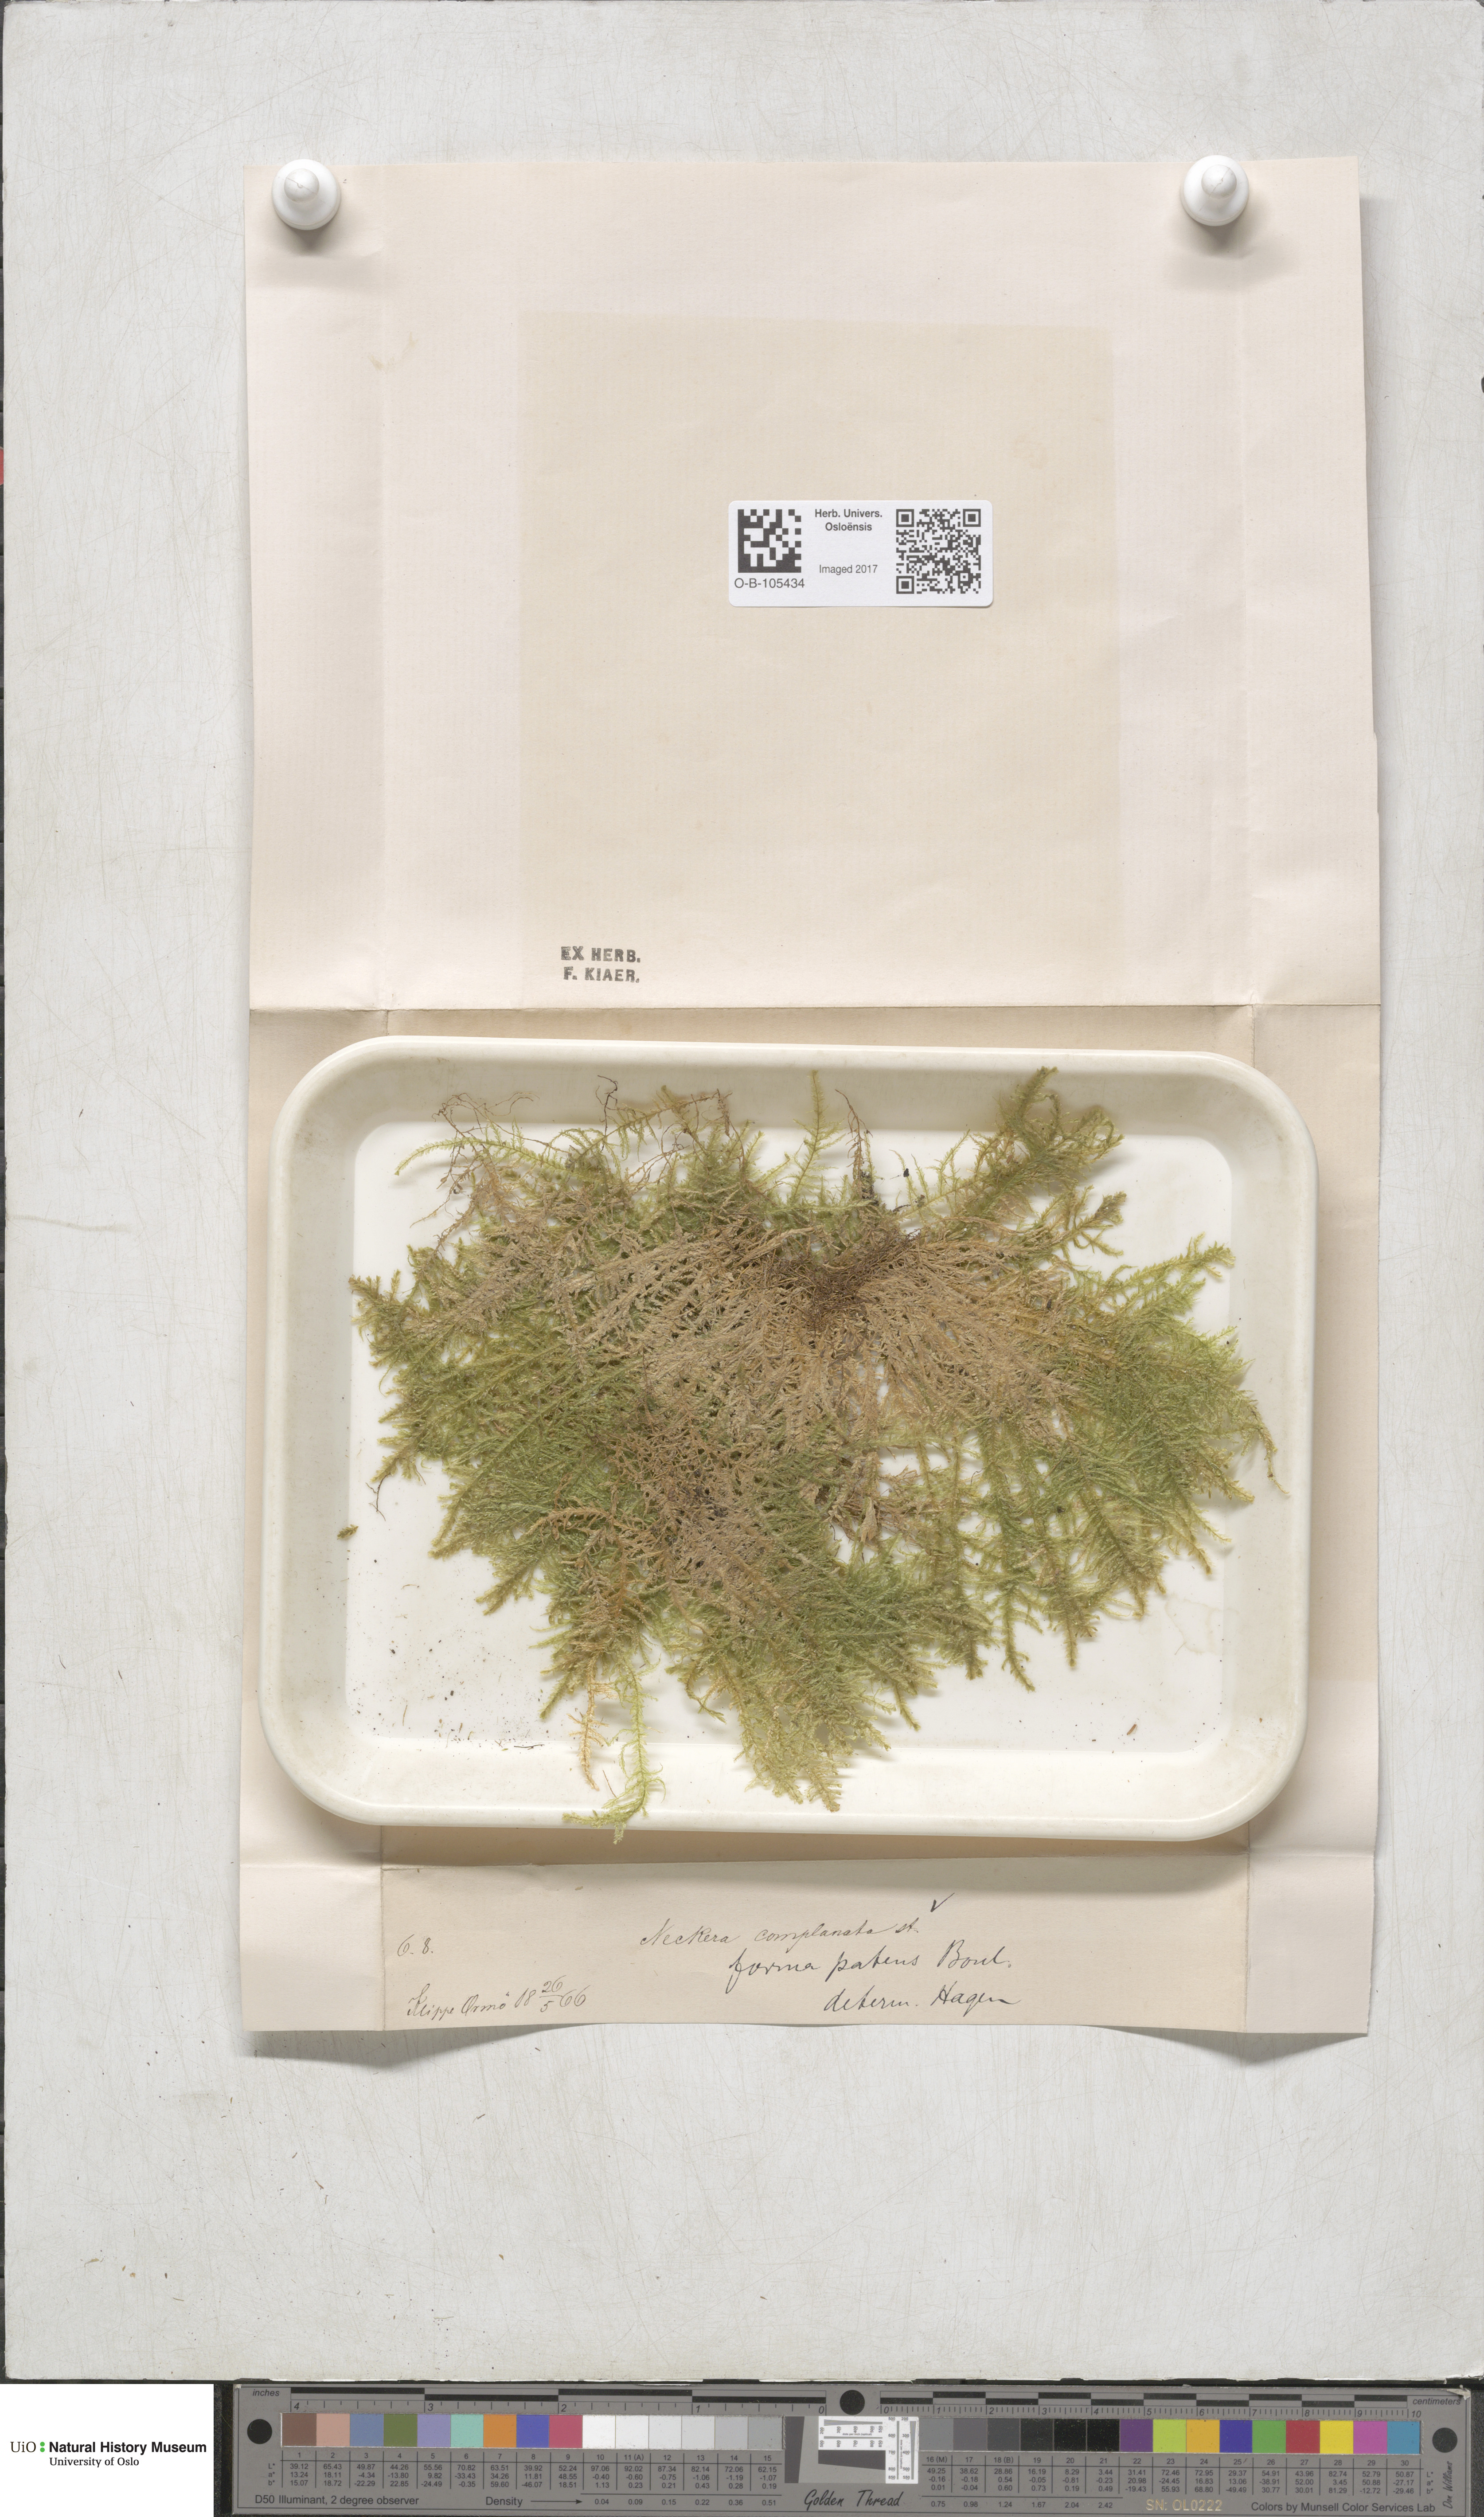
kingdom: Plantae
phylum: Bryophyta
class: Bryopsida
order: Hypnales
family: Neckeraceae
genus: Alleniella
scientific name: Alleniella complanata
